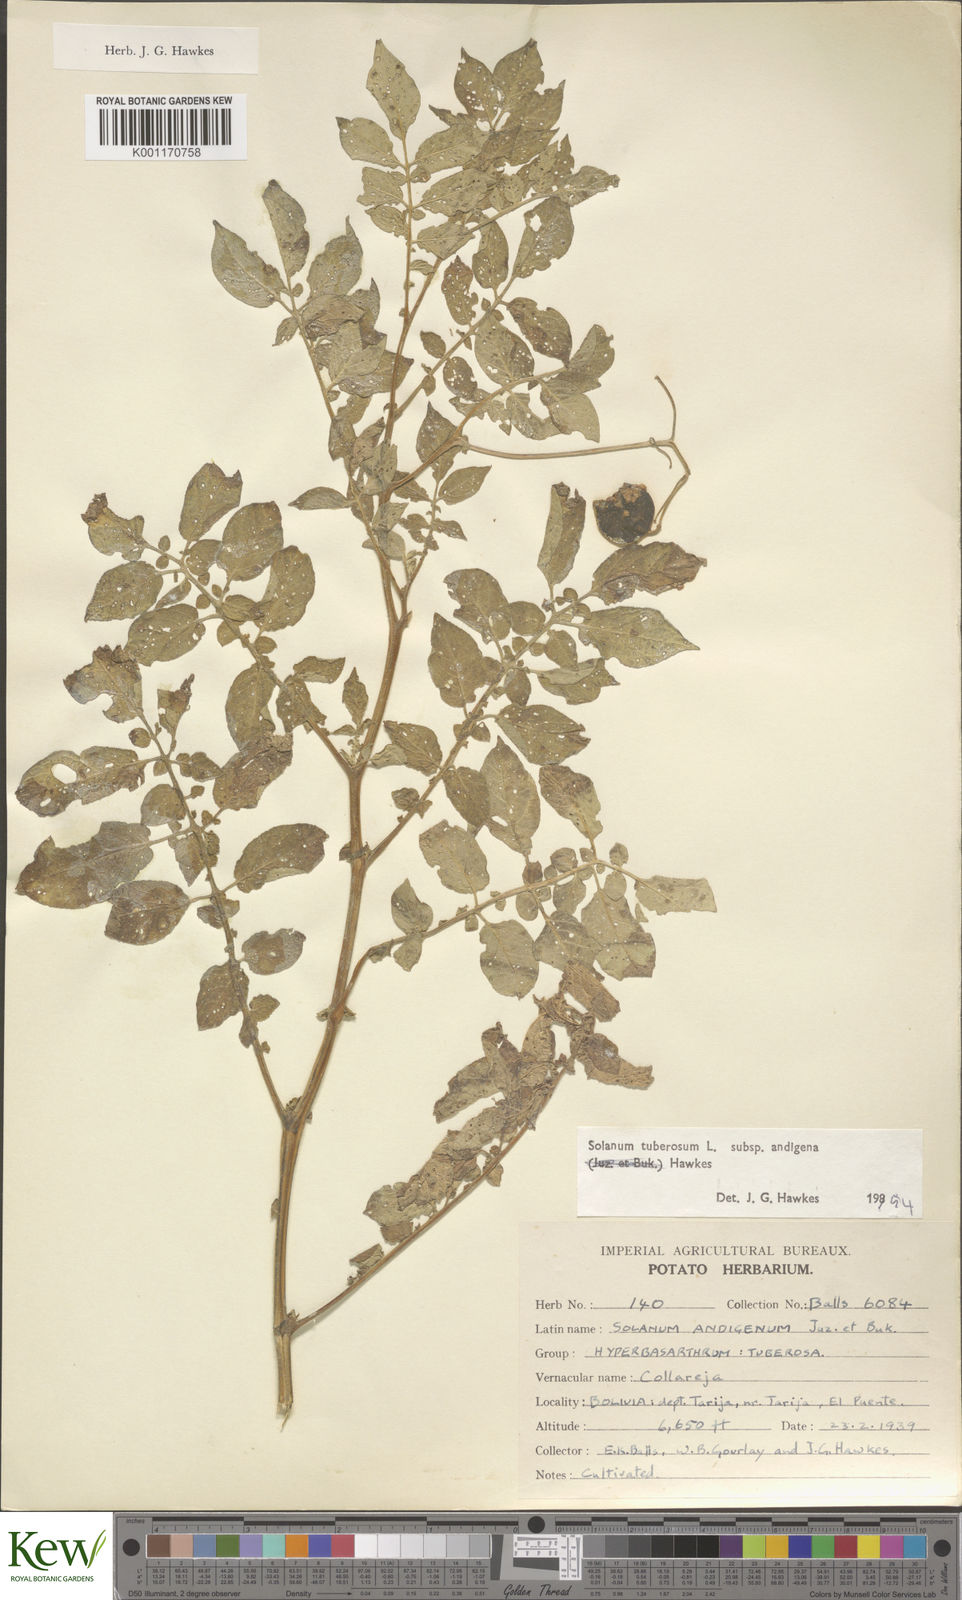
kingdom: Plantae
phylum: Tracheophyta
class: Magnoliopsida
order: Solanales
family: Solanaceae
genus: Solanum
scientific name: Solanum tuberosum
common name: Potato
